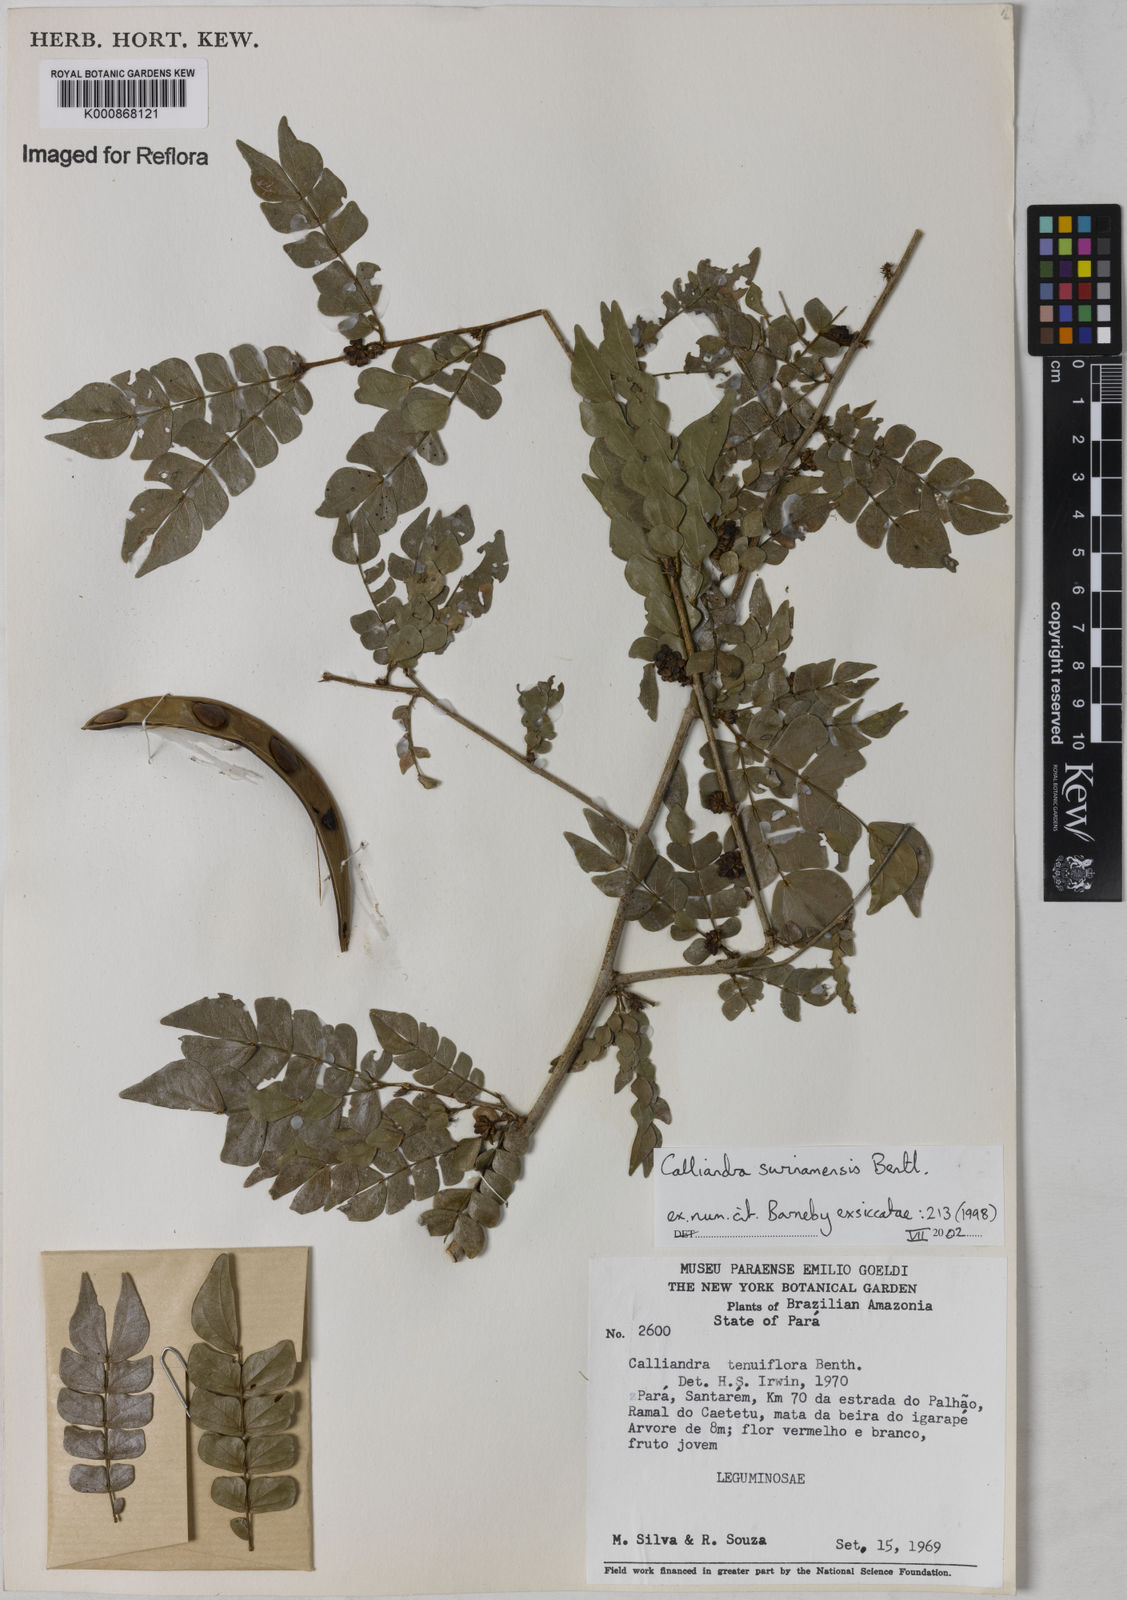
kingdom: Plantae
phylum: Tracheophyta
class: Magnoliopsida
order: Fabales
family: Fabaceae
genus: Calliandra
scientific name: Calliandra surinamensis
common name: Pink powder puff
